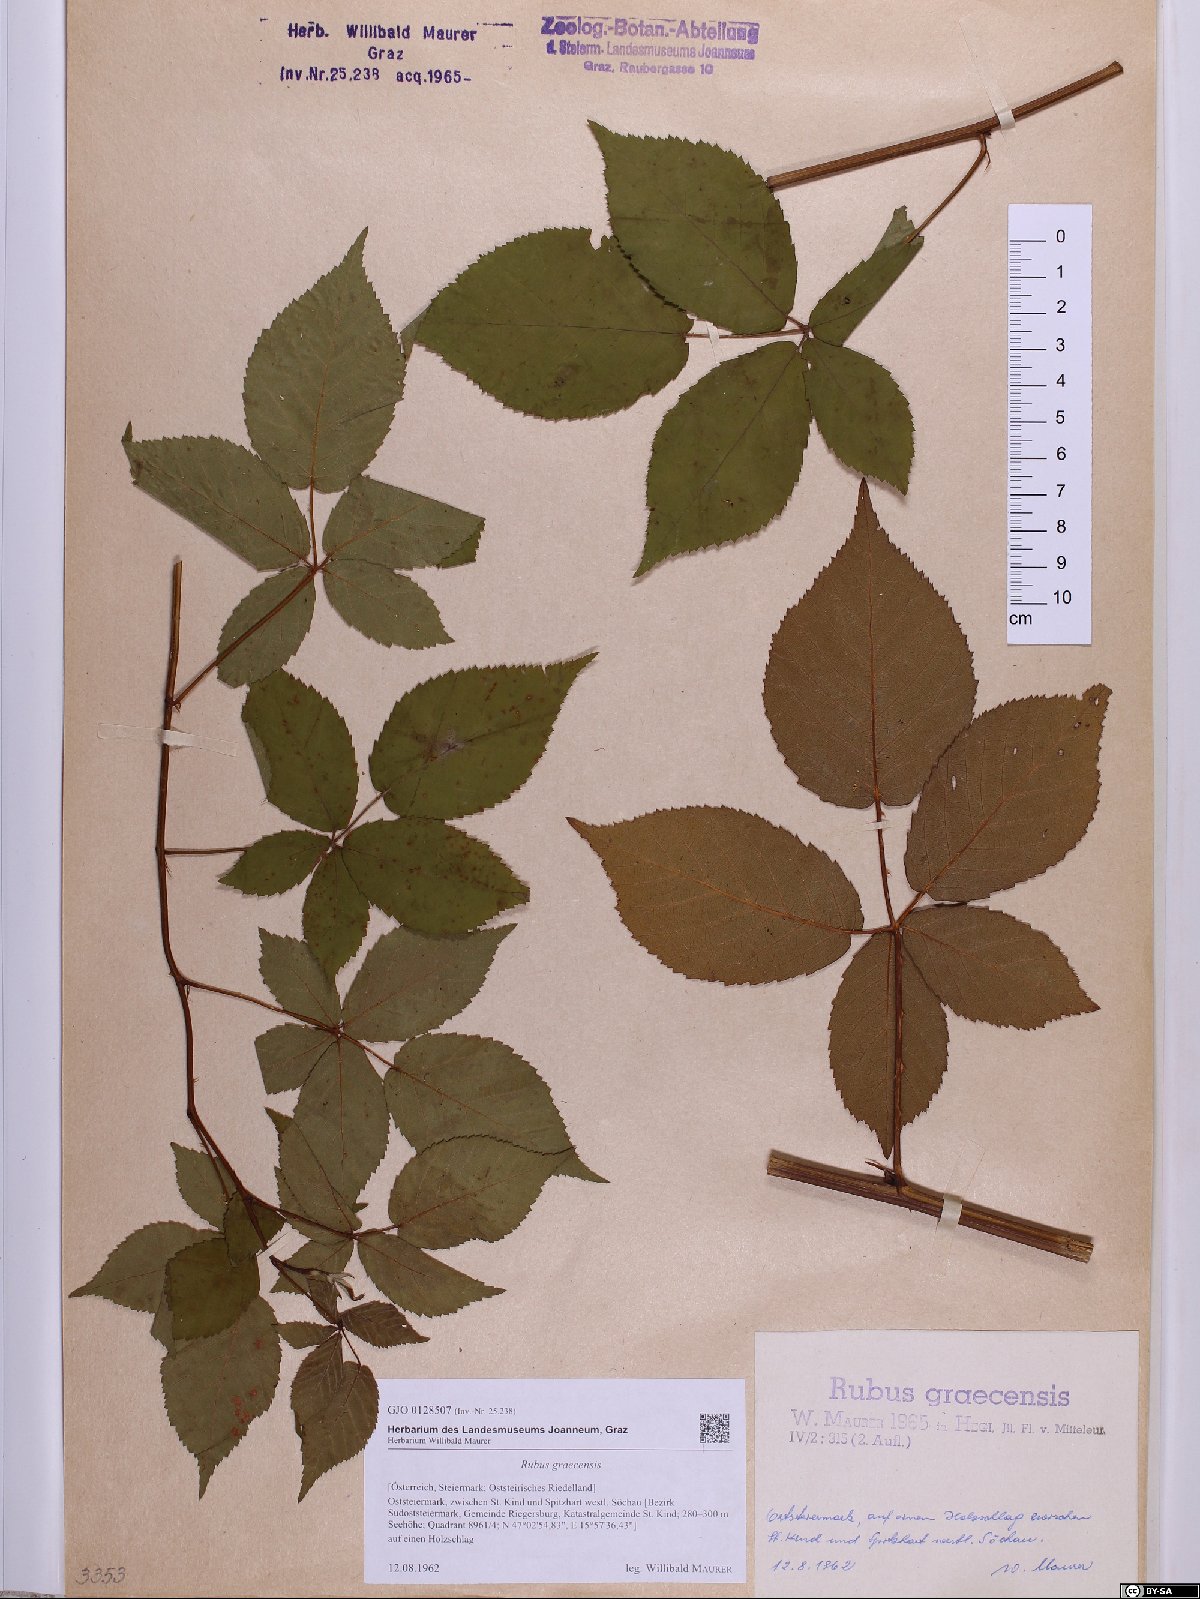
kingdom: Plantae
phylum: Tracheophyta
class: Magnoliopsida
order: Rosales
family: Rosaceae
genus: Rubus
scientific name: Rubus graecensis
